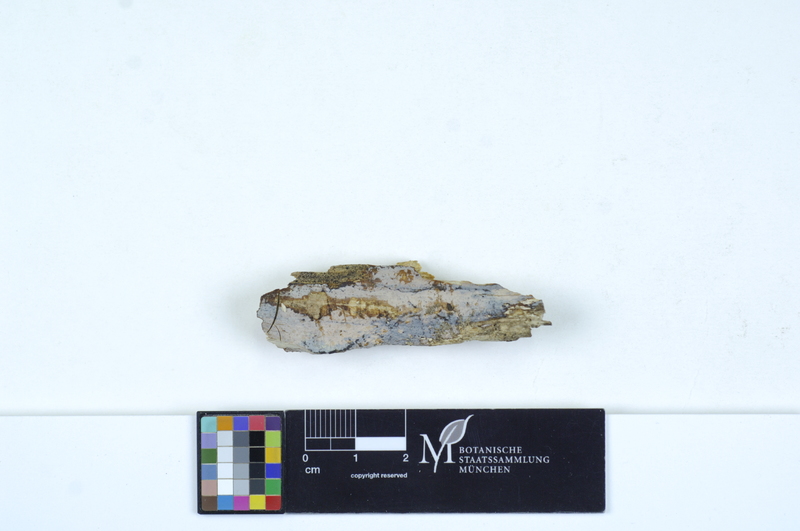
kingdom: Plantae
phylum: Tracheophyta
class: Magnoliopsida
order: Fagales
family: Betulaceae
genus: Carpinus
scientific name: Carpinus
